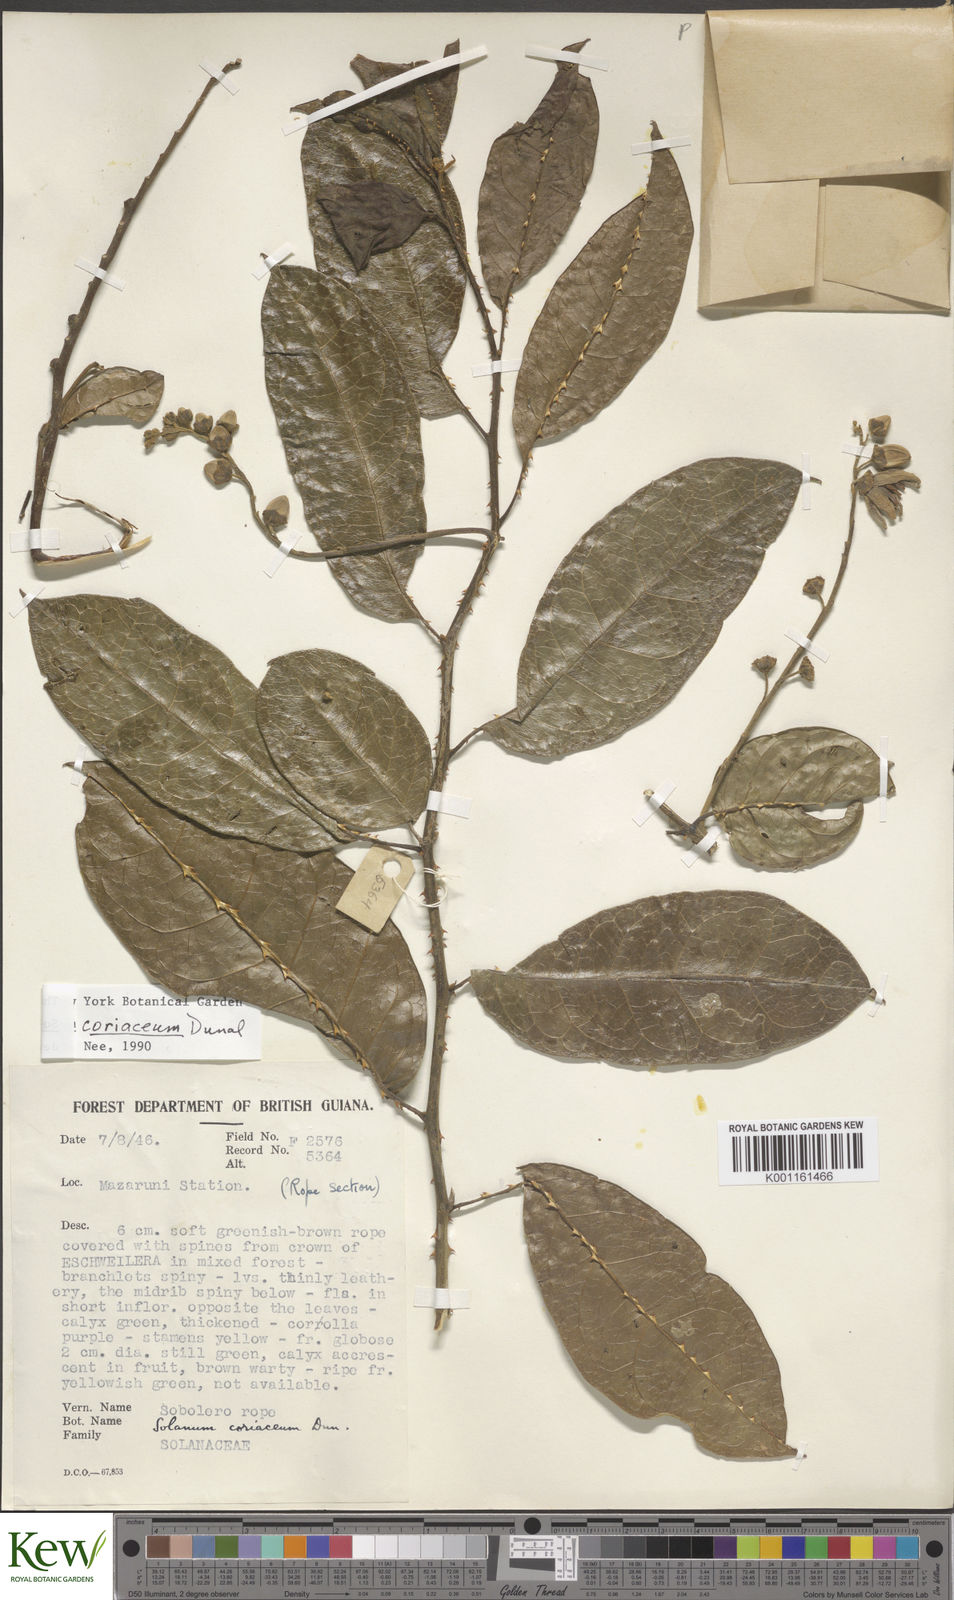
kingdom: Plantae
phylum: Tracheophyta
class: Magnoliopsida
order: Solanales
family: Solanaceae
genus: Solanum
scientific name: Solanum coriaceum
